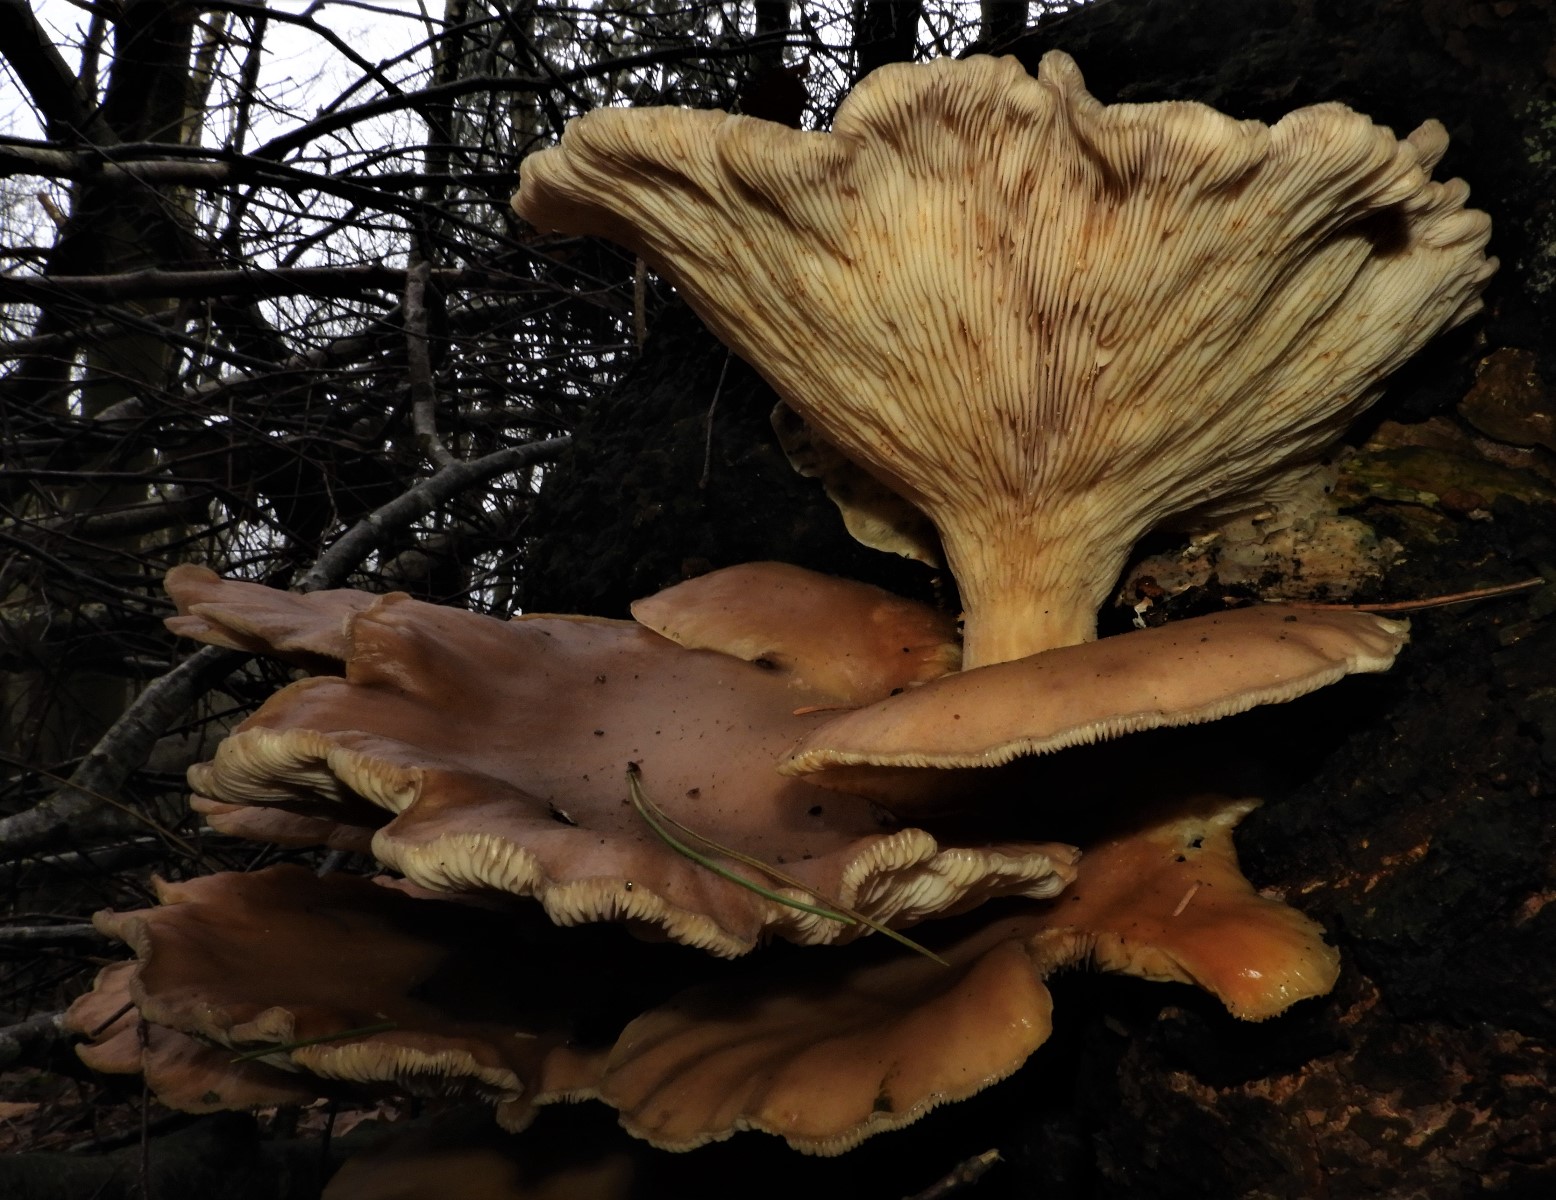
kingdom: Fungi
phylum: Basidiomycota
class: Agaricomycetes
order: Agaricales
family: Pleurotaceae
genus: Pleurotus
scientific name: Pleurotus ostreatus
